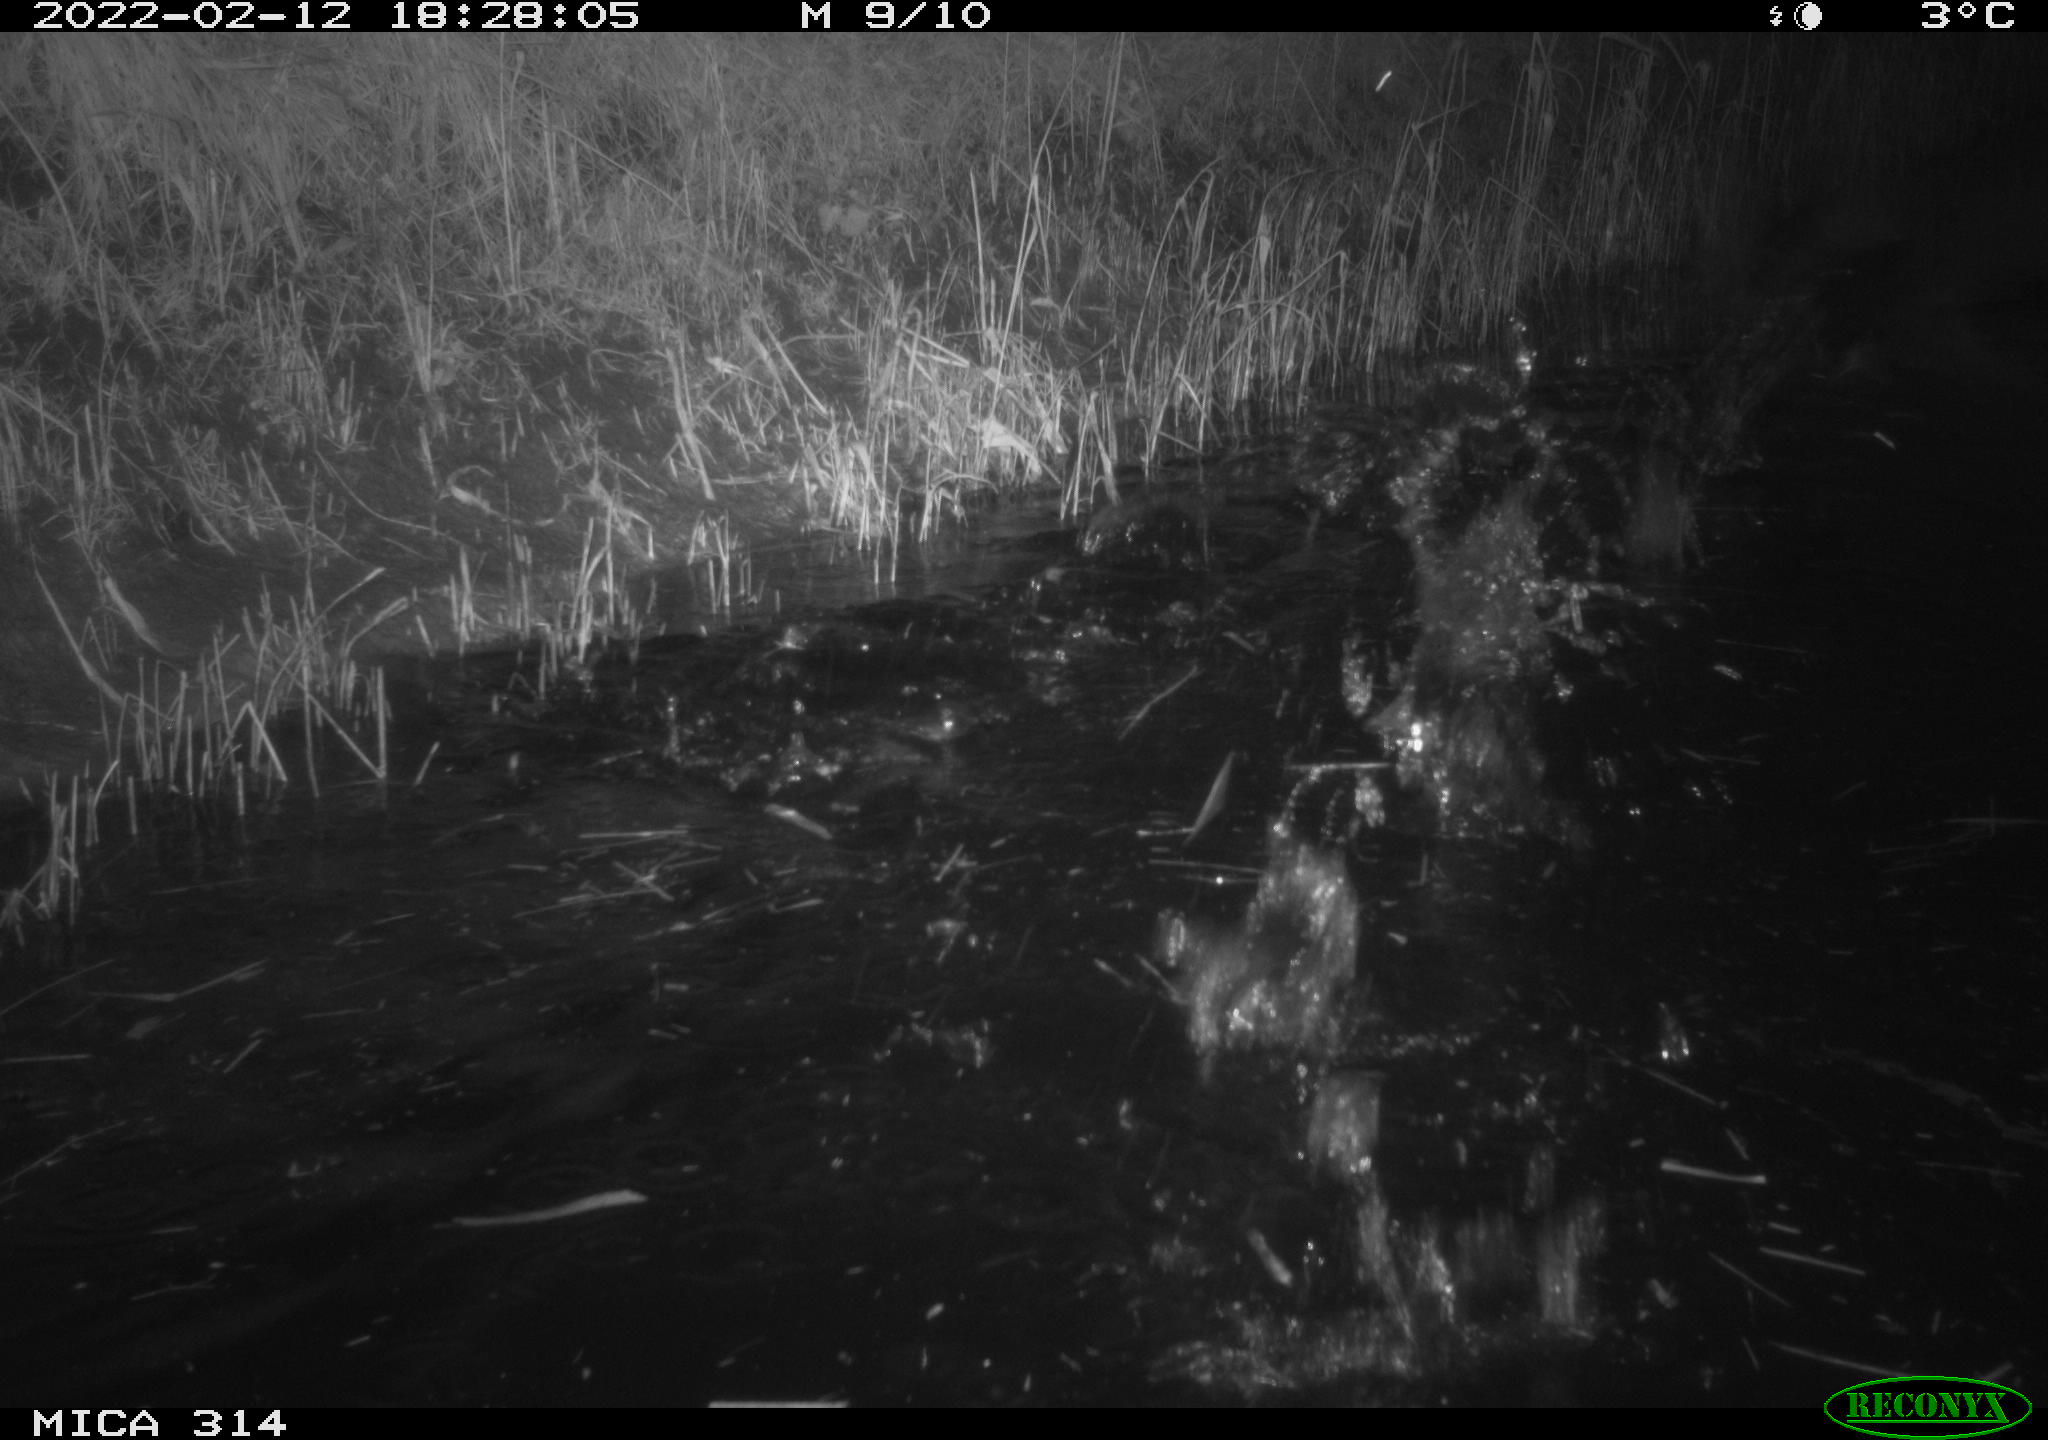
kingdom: Animalia
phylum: Chordata
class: Aves
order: Gruiformes
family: Rallidae
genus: Gallinula
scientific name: Gallinula chloropus
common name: Common moorhen
